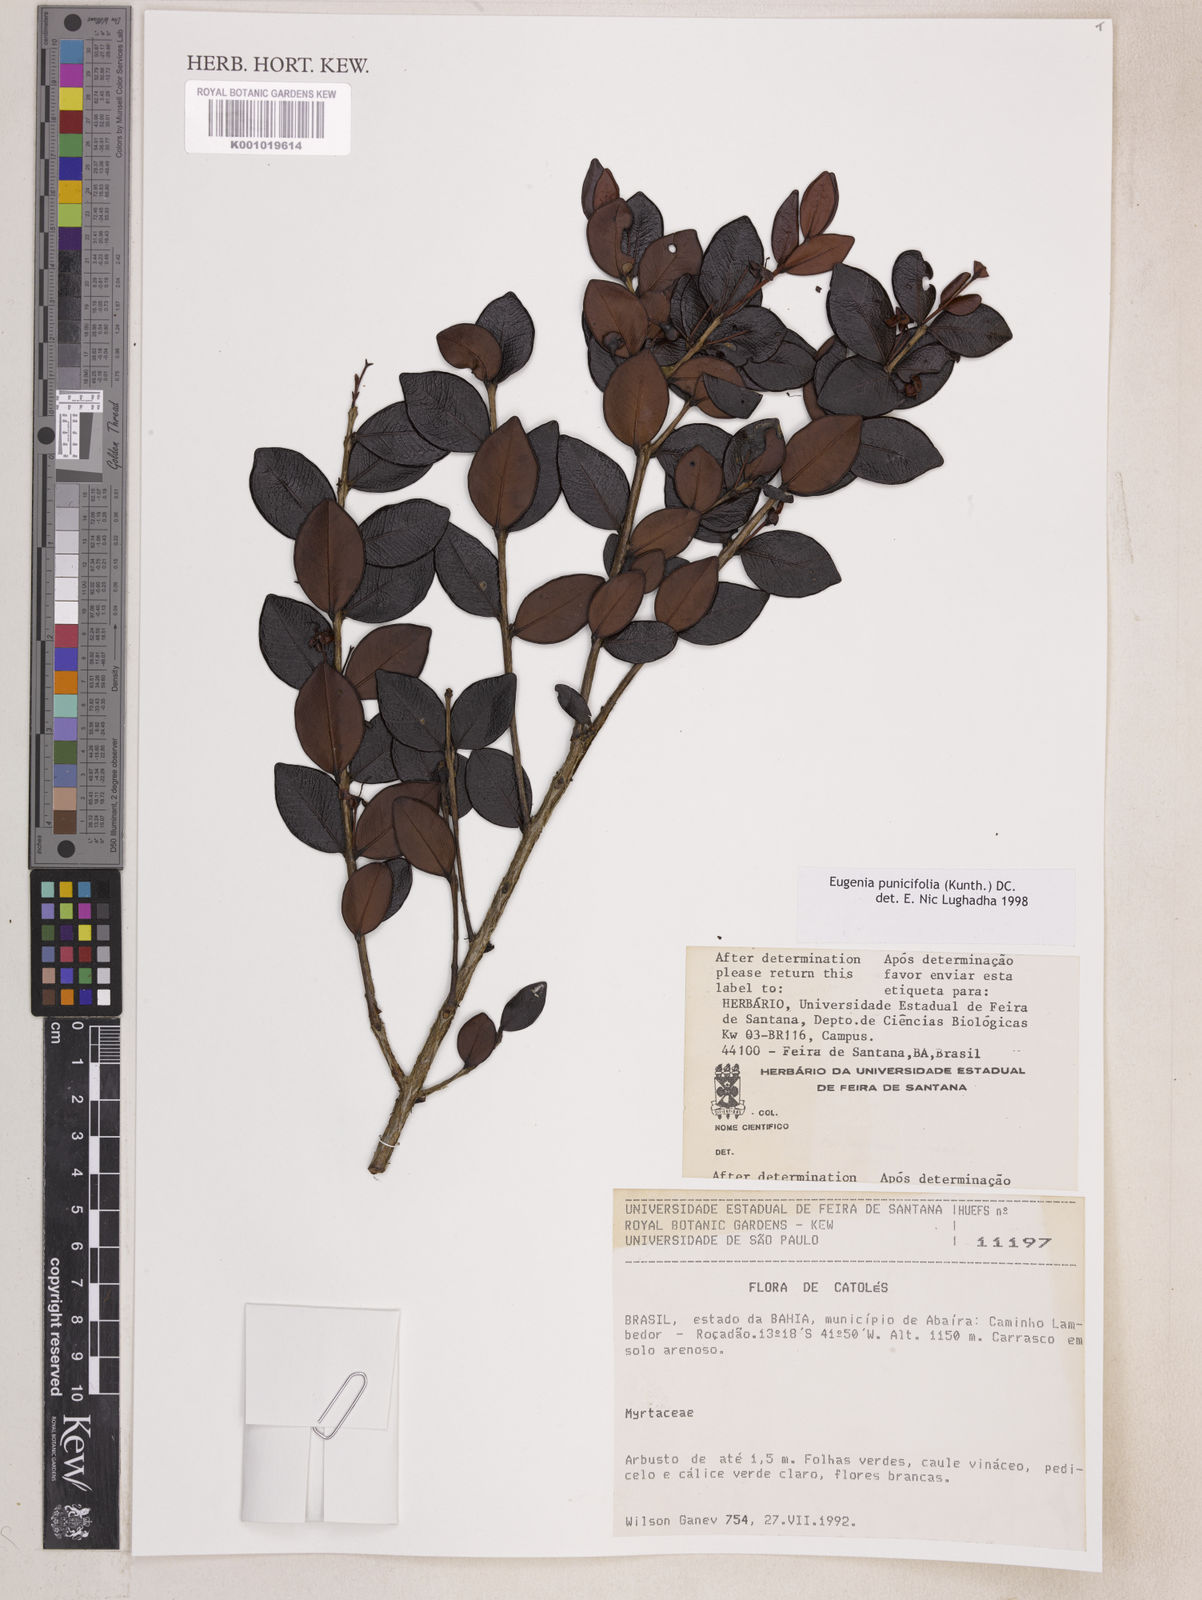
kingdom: Plantae
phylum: Tracheophyta
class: Magnoliopsida
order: Myrtales
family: Myrtaceae
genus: Eugenia
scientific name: Eugenia punicifolia
